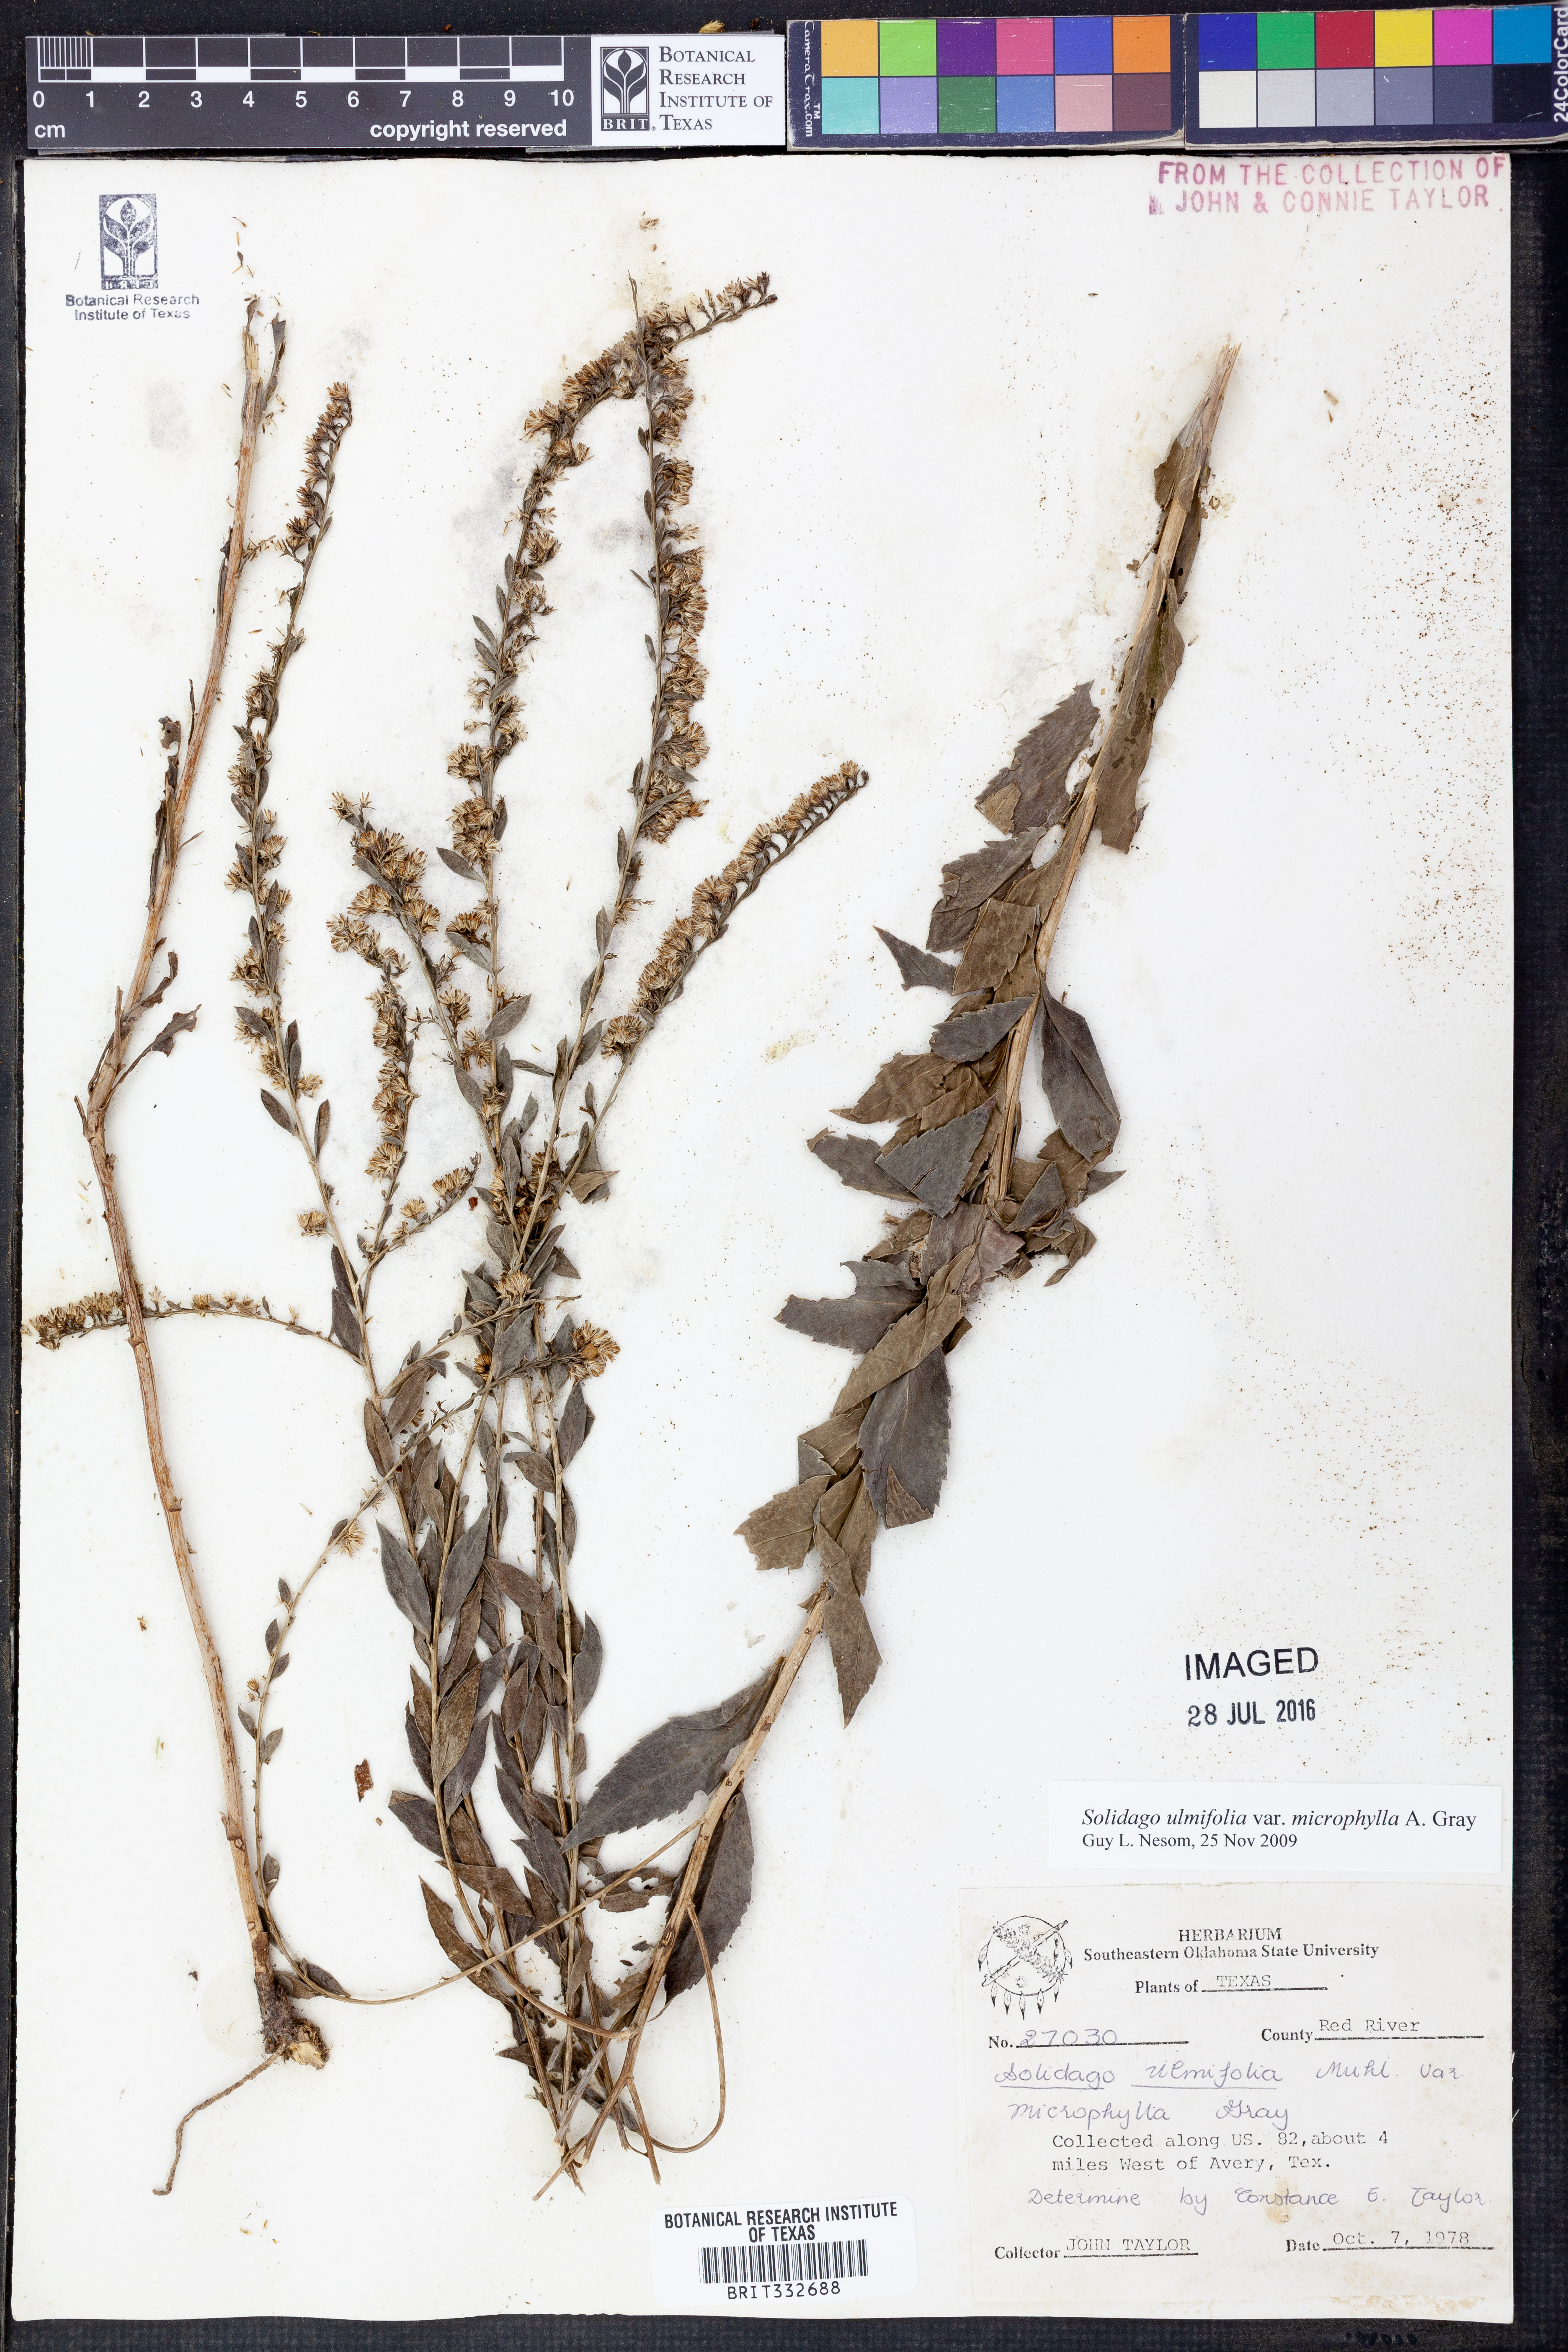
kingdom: Plantae
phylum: Tracheophyta
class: Magnoliopsida
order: Asterales
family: Asteraceae
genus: Solidago
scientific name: Solidago delicatula
